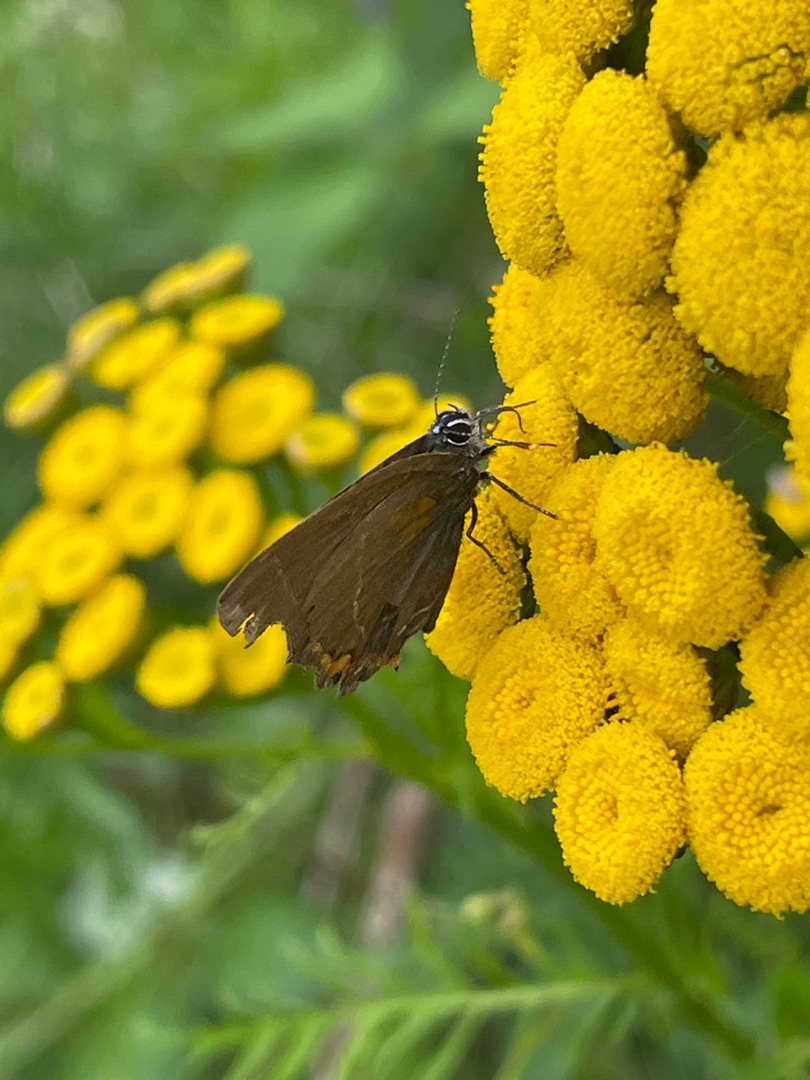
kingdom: Animalia
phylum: Arthropoda
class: Insecta
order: Lepidoptera
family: Lycaenidae
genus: Satyrium
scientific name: Satyrium w-album
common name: Det hvide W
